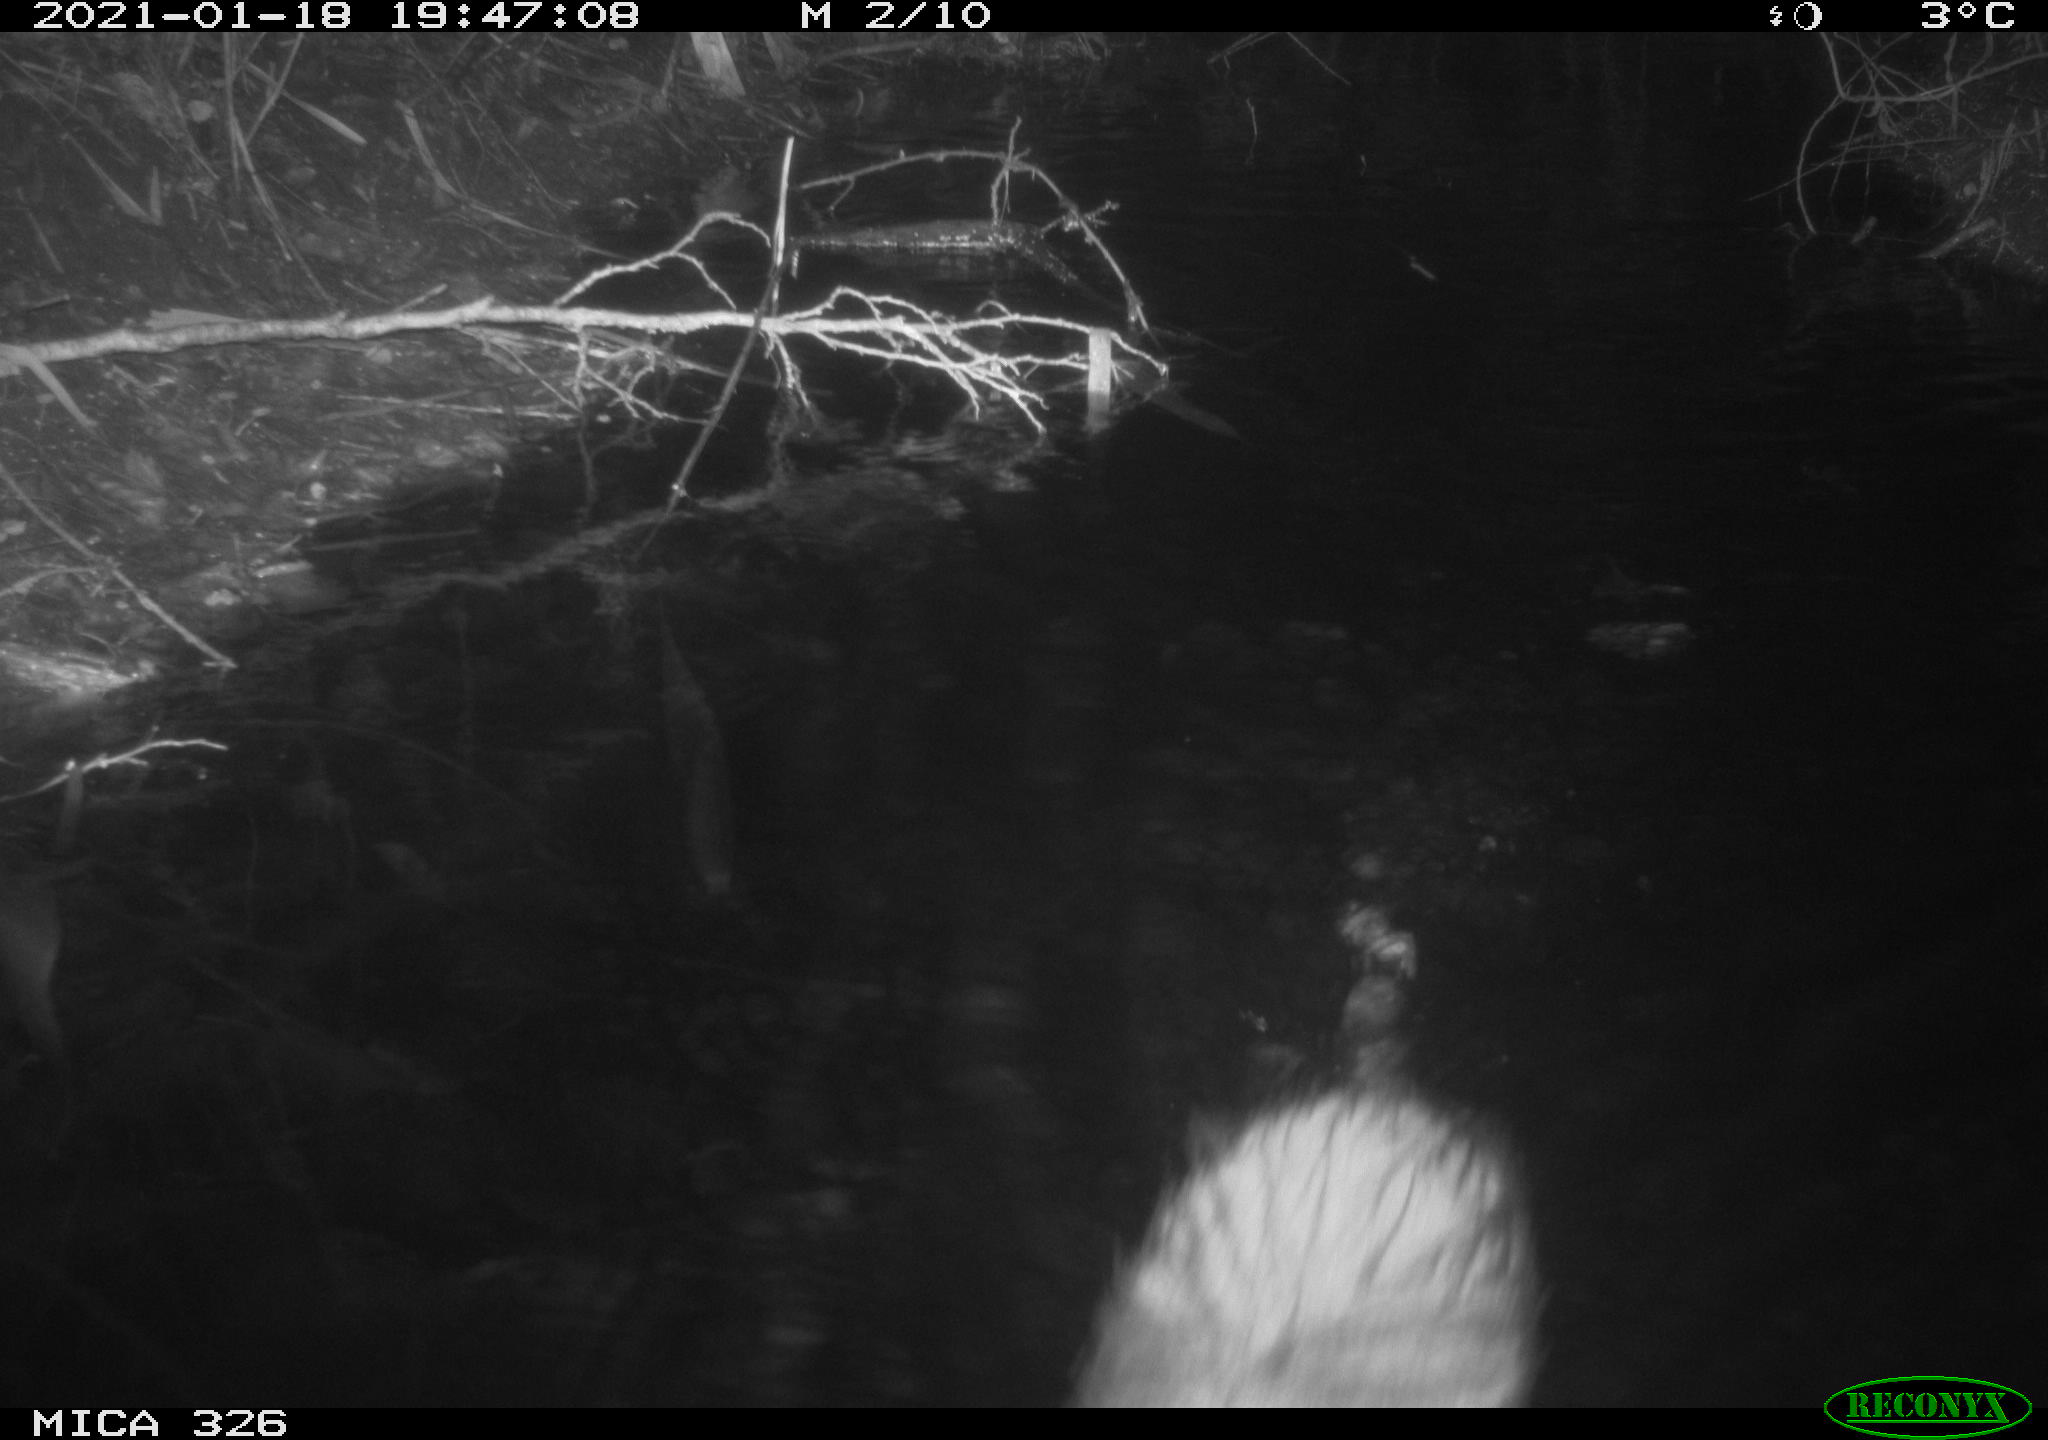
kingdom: Animalia
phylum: Chordata
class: Mammalia
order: Rodentia
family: Myocastoridae
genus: Myocastor
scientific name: Myocastor coypus
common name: Coypu
